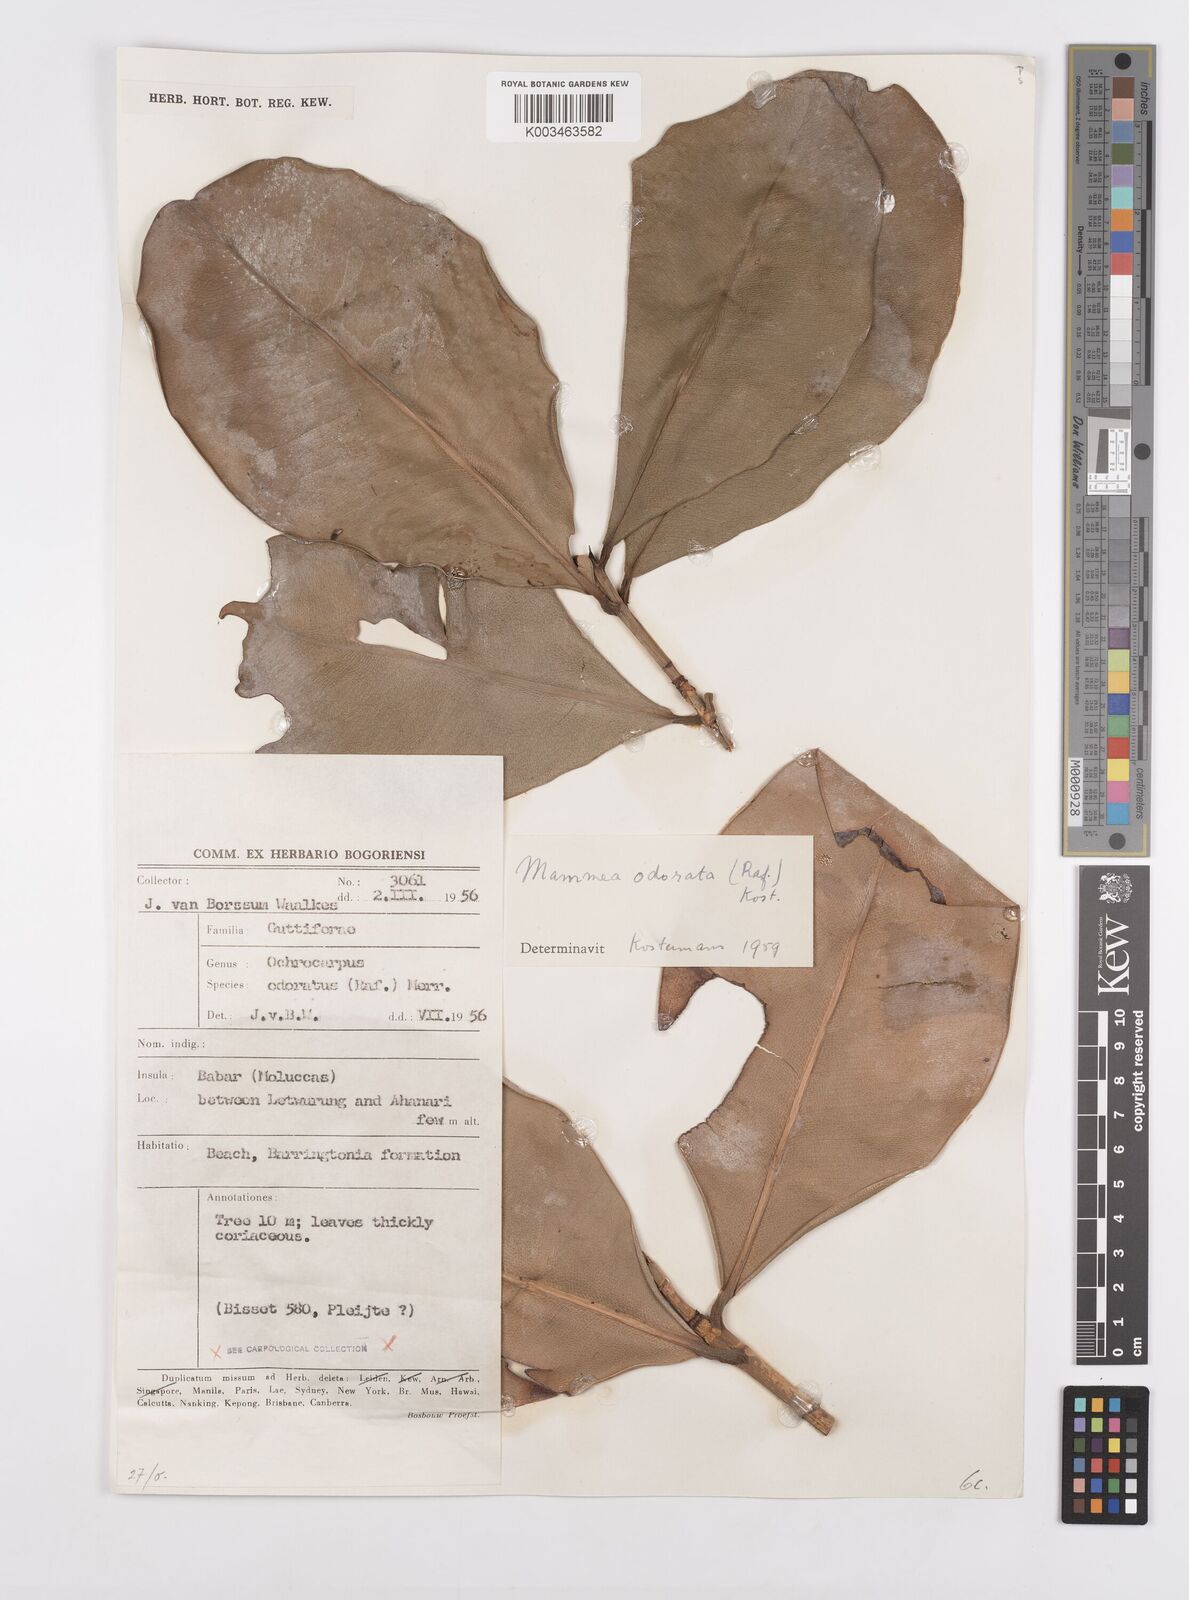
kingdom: Plantae
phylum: Tracheophyta
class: Magnoliopsida
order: Malpighiales
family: Calophyllaceae
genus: Mammea
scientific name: Mammea odorata
